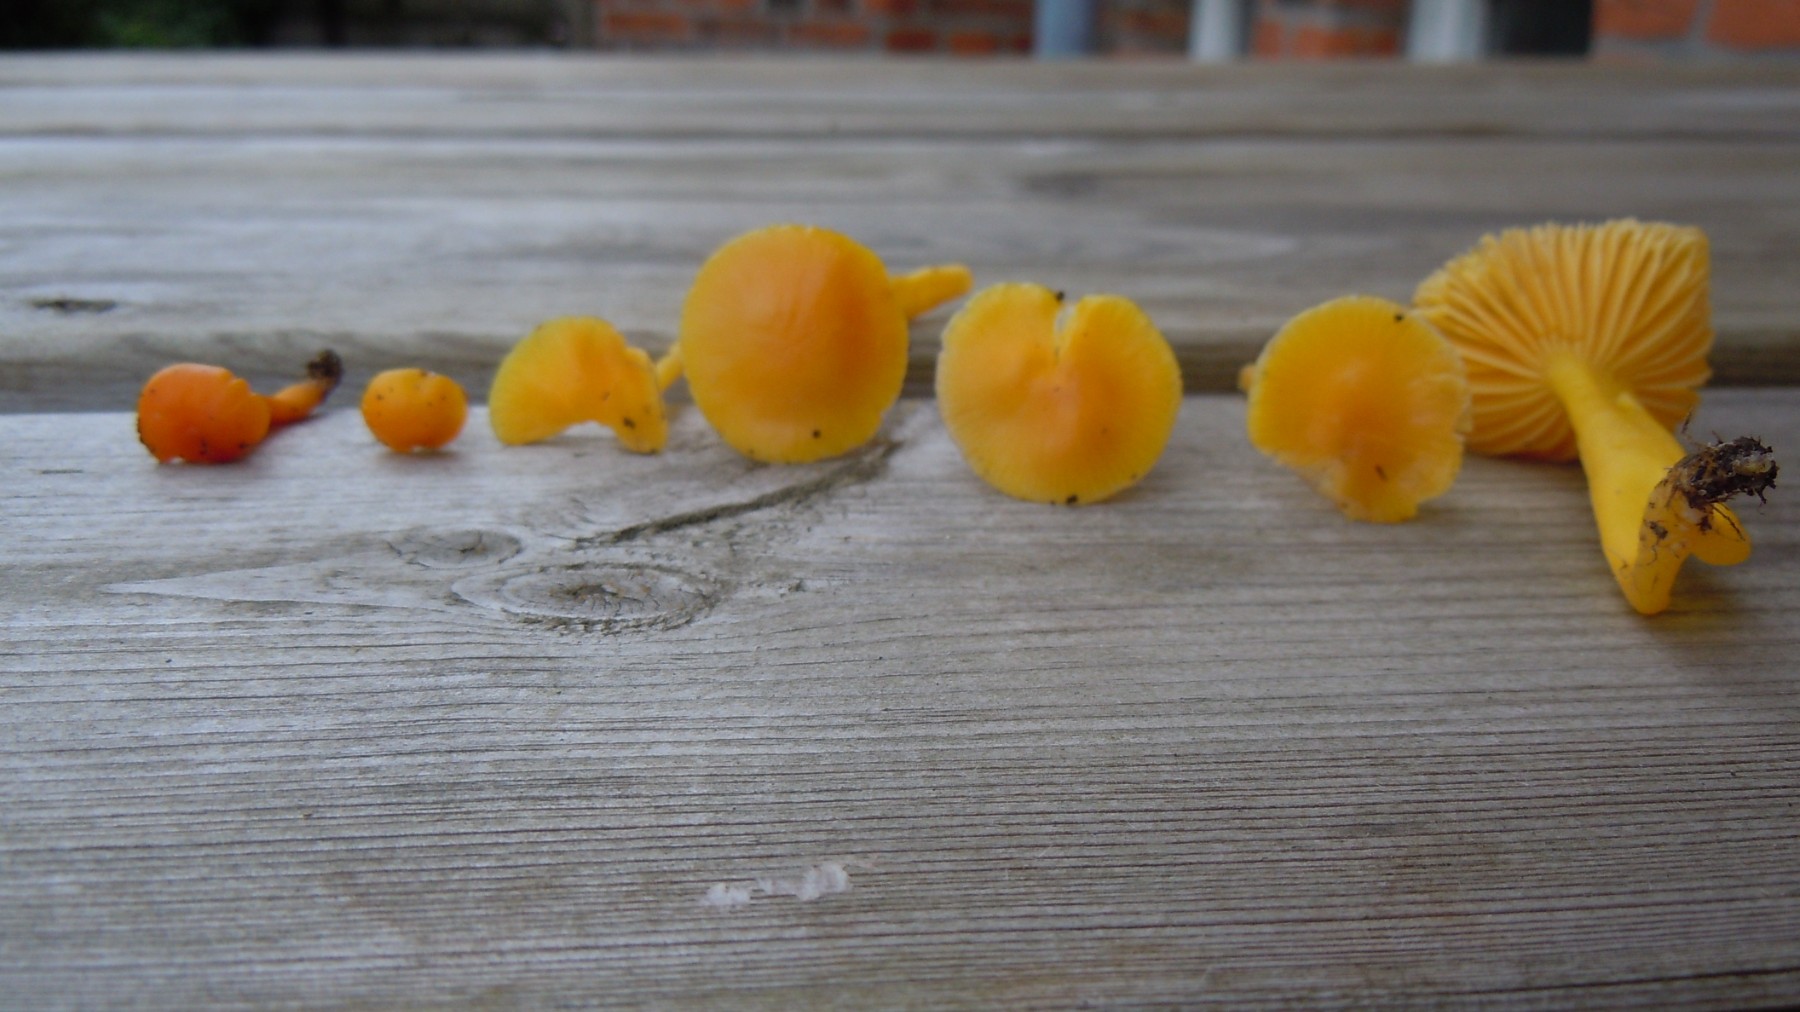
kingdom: Fungi
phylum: Basidiomycota
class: Agaricomycetes
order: Agaricales
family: Hygrophoraceae
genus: Hygrocybe
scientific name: Hygrocybe ceracea
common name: voksgul vokshat
